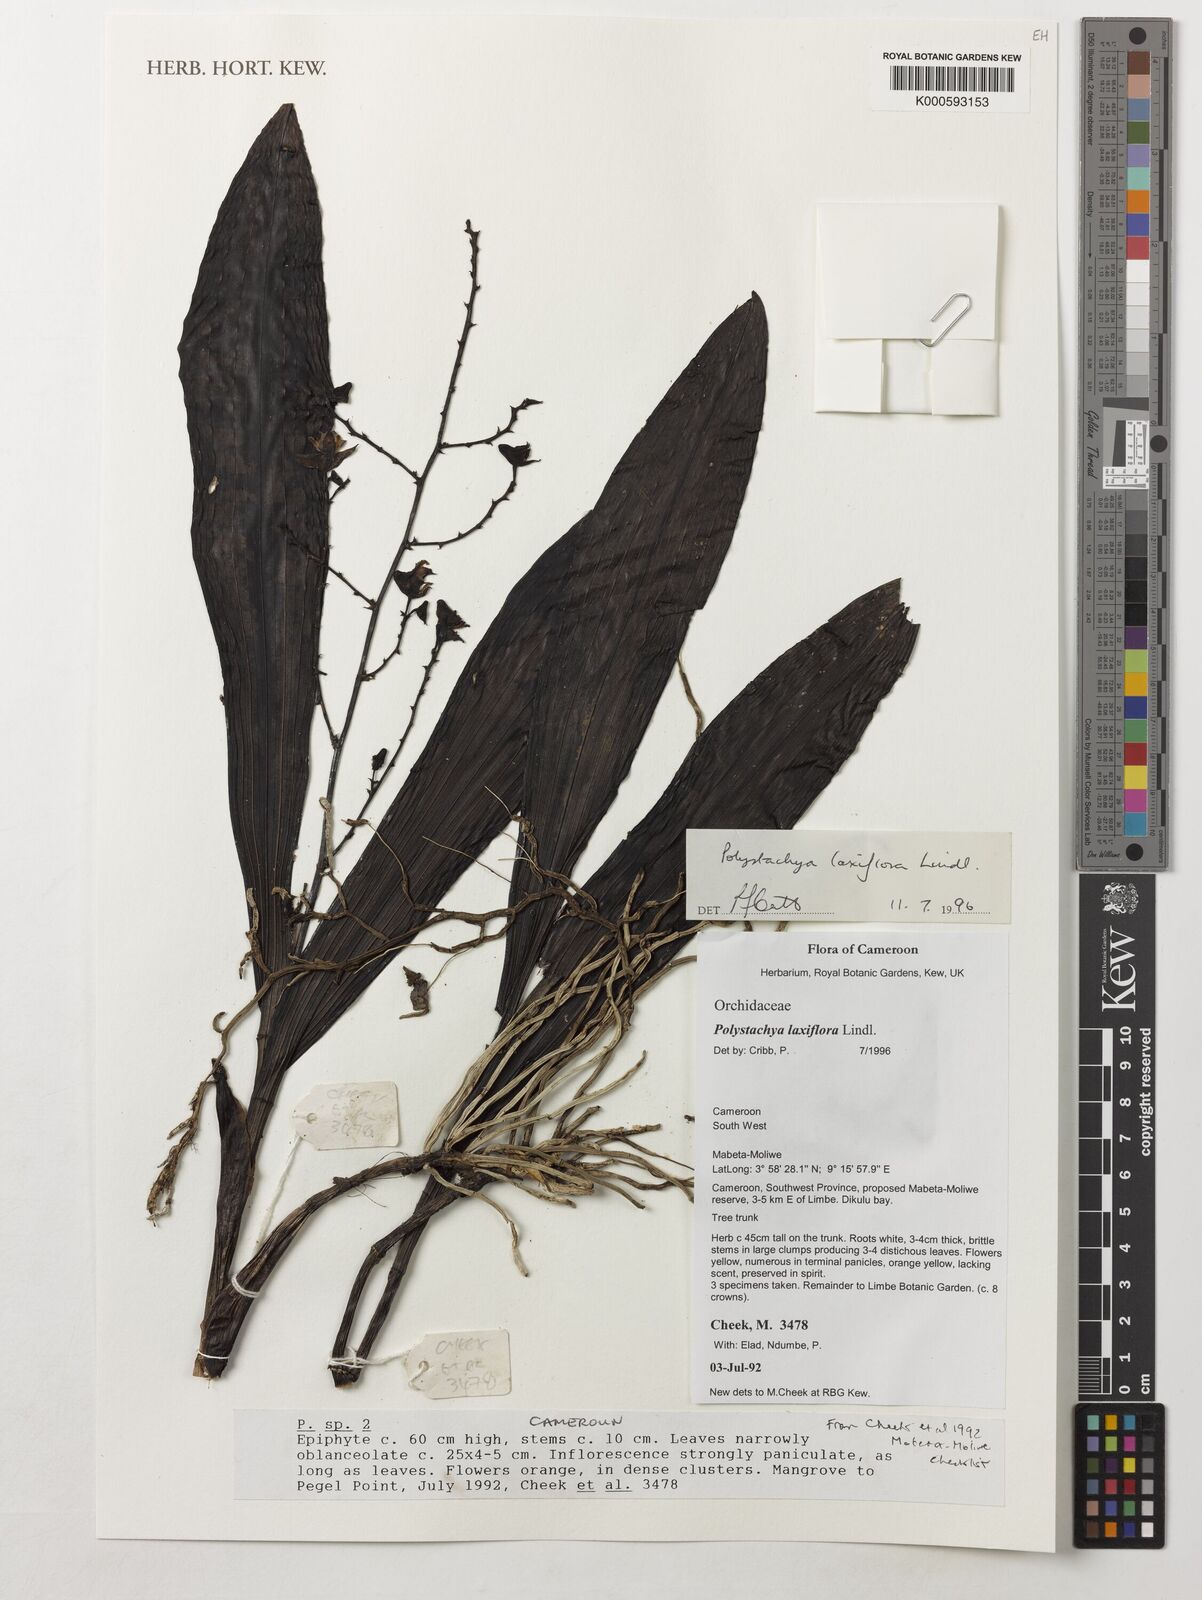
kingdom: Plantae
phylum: Tracheophyta
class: Liliopsida
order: Asparagales
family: Orchidaceae
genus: Polystachya
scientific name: Polystachya laxiflora
